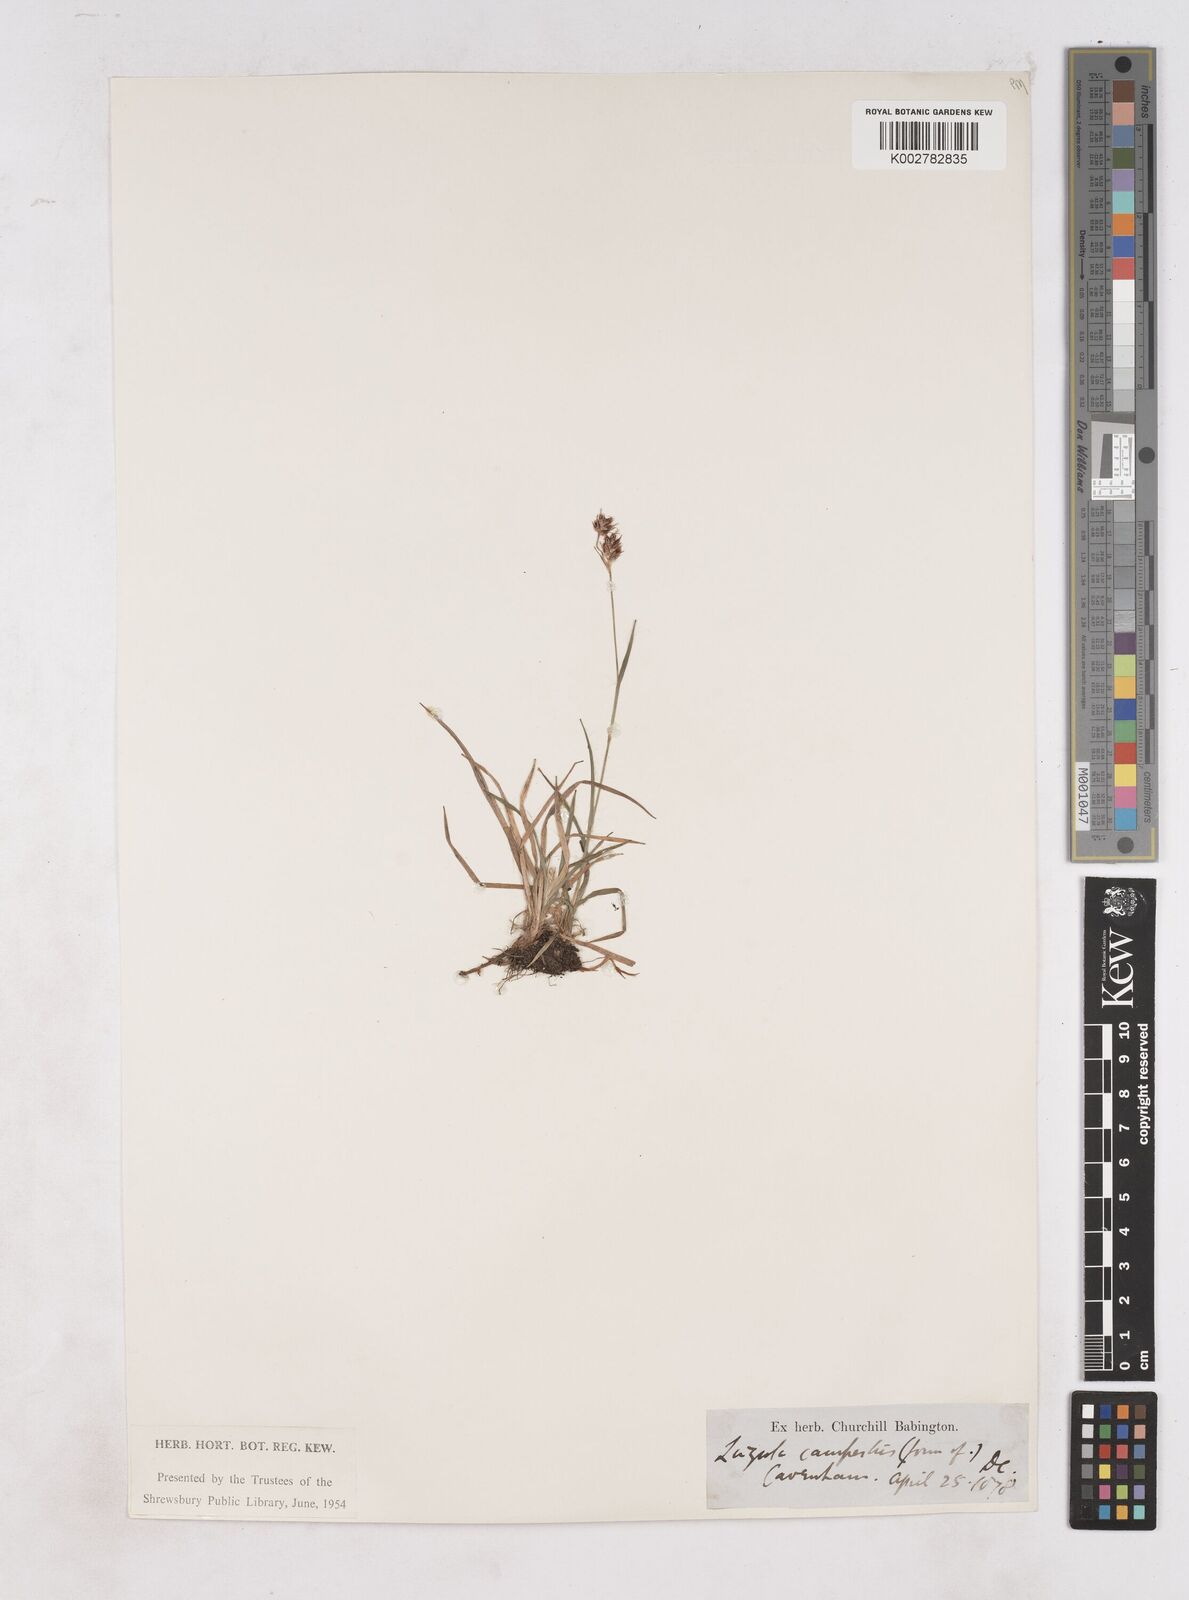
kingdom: Plantae
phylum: Tracheophyta
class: Liliopsida
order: Poales
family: Juncaceae
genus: Luzula
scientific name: Luzula campestris
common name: Field wood-rush
